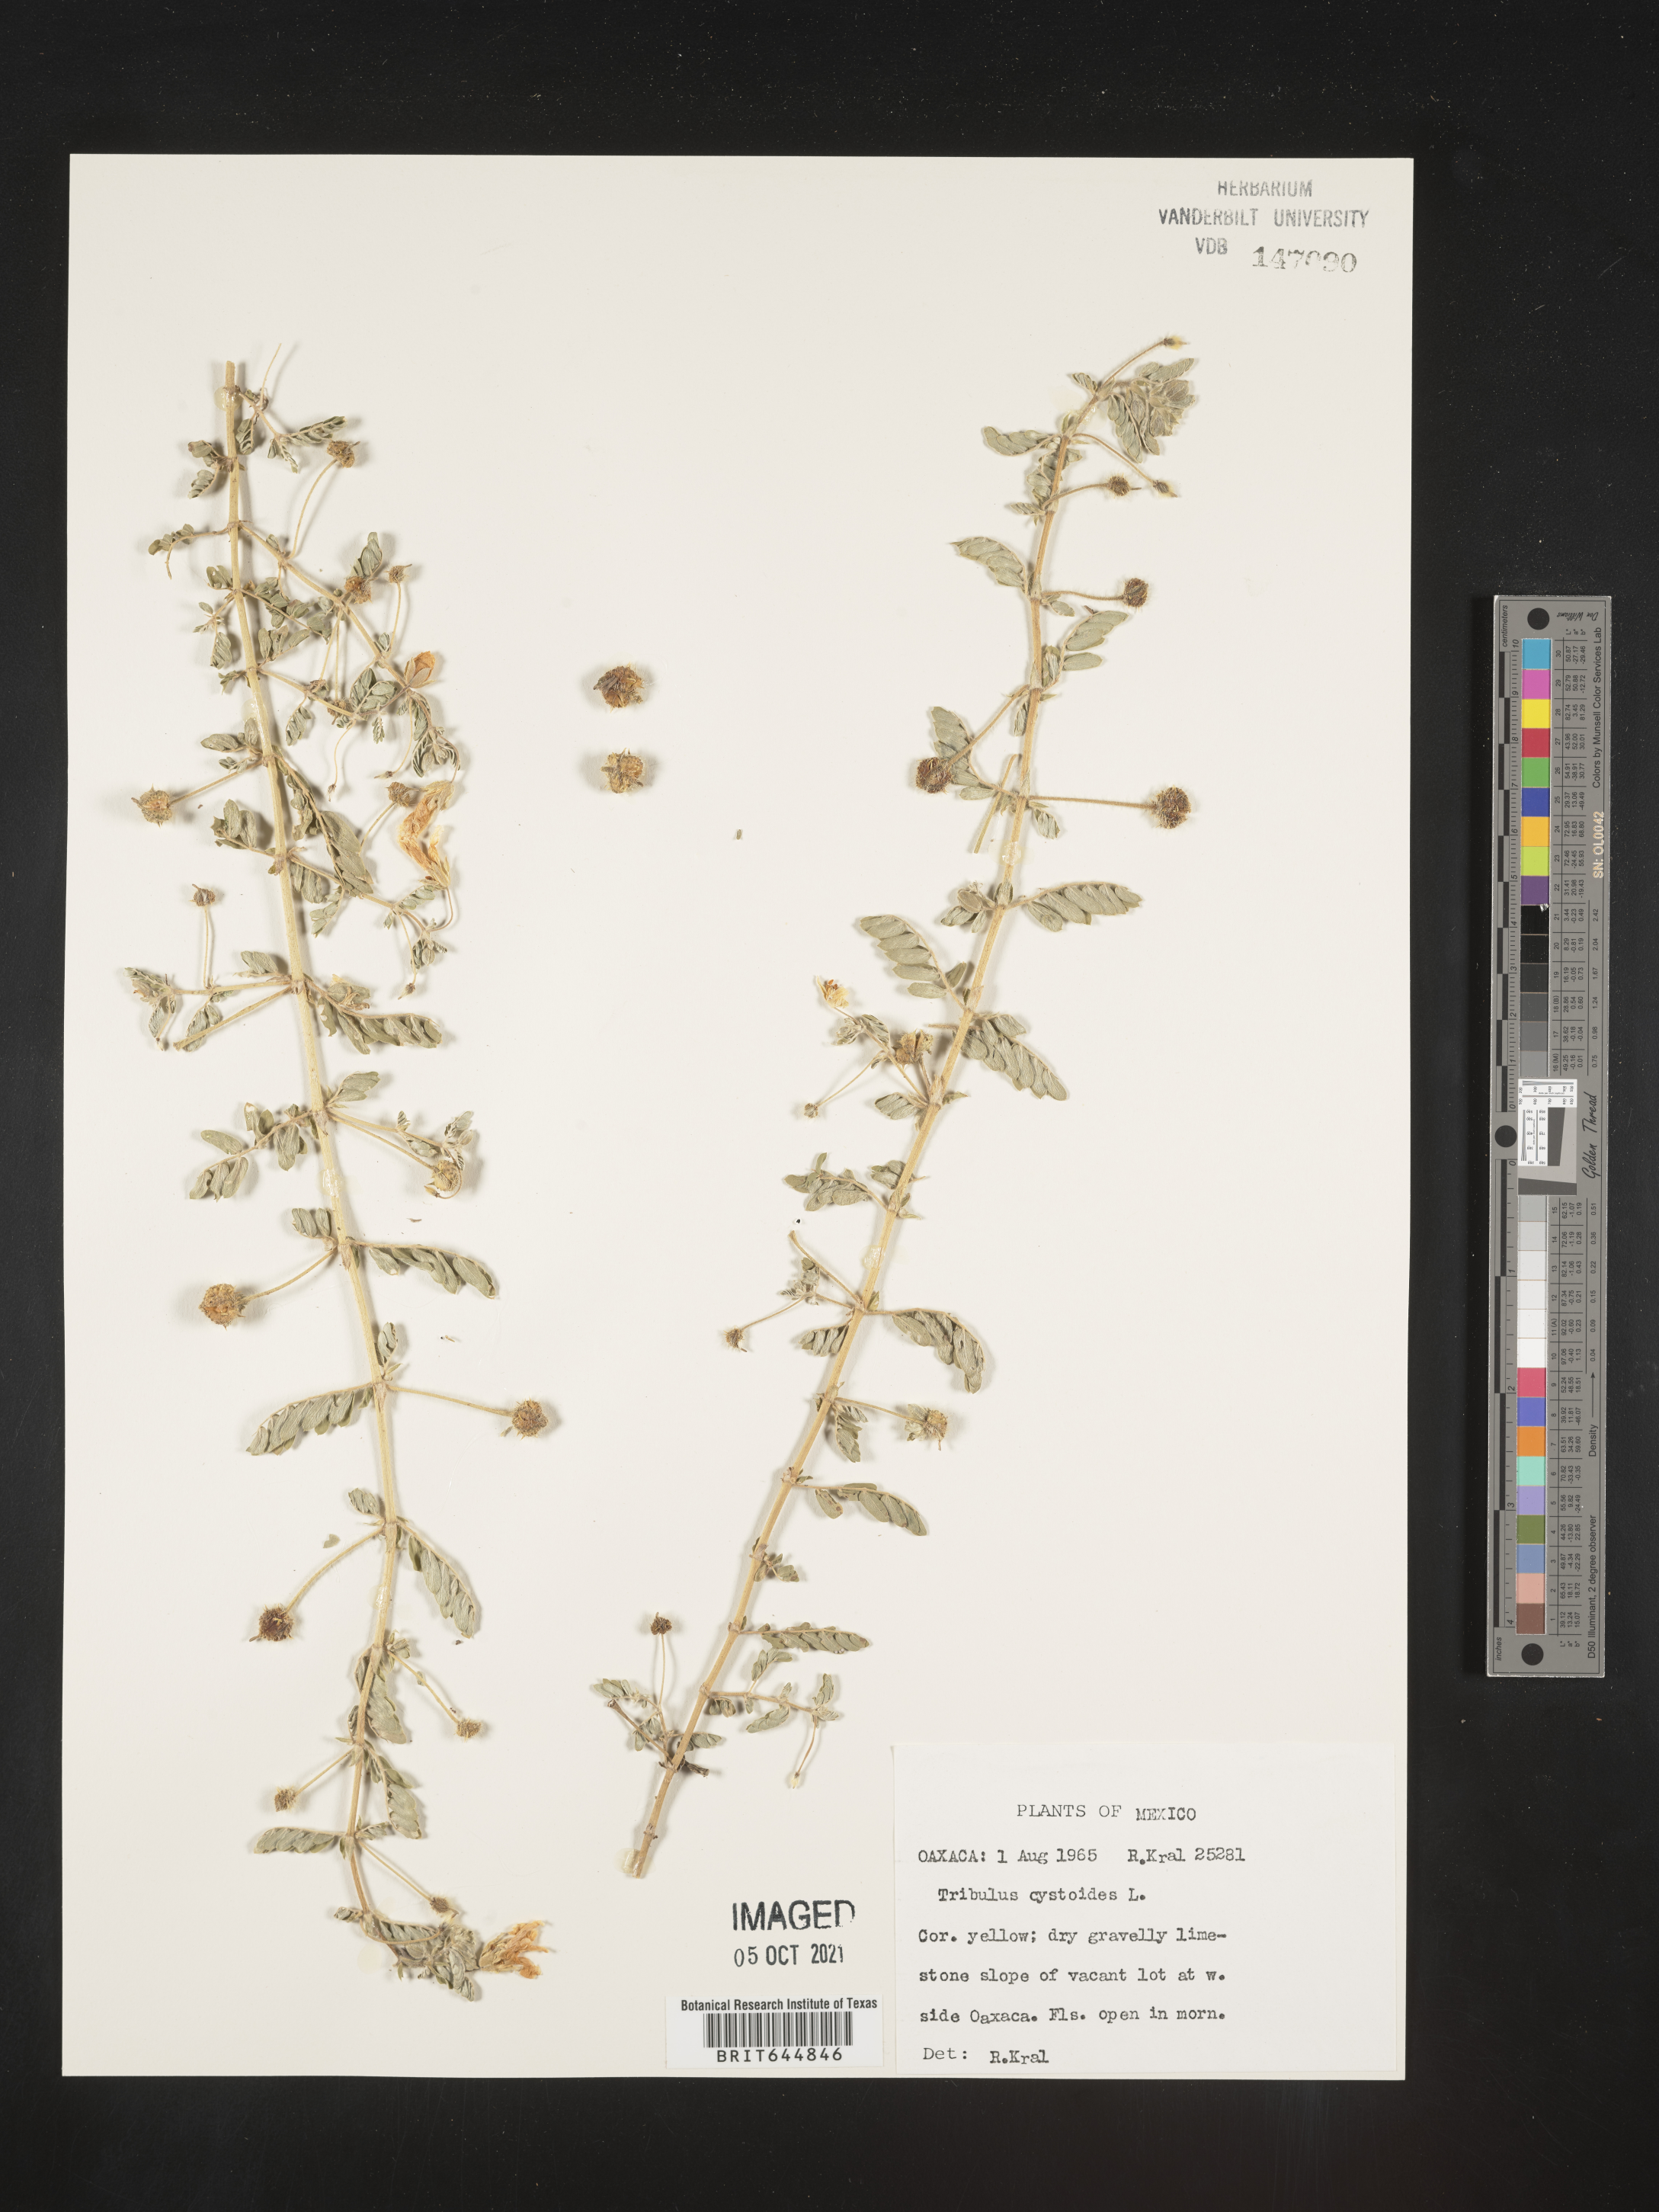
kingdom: Plantae
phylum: Tracheophyta
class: Magnoliopsida
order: Zygophyllales
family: Zygophyllaceae
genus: Tribulus
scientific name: Tribulus
